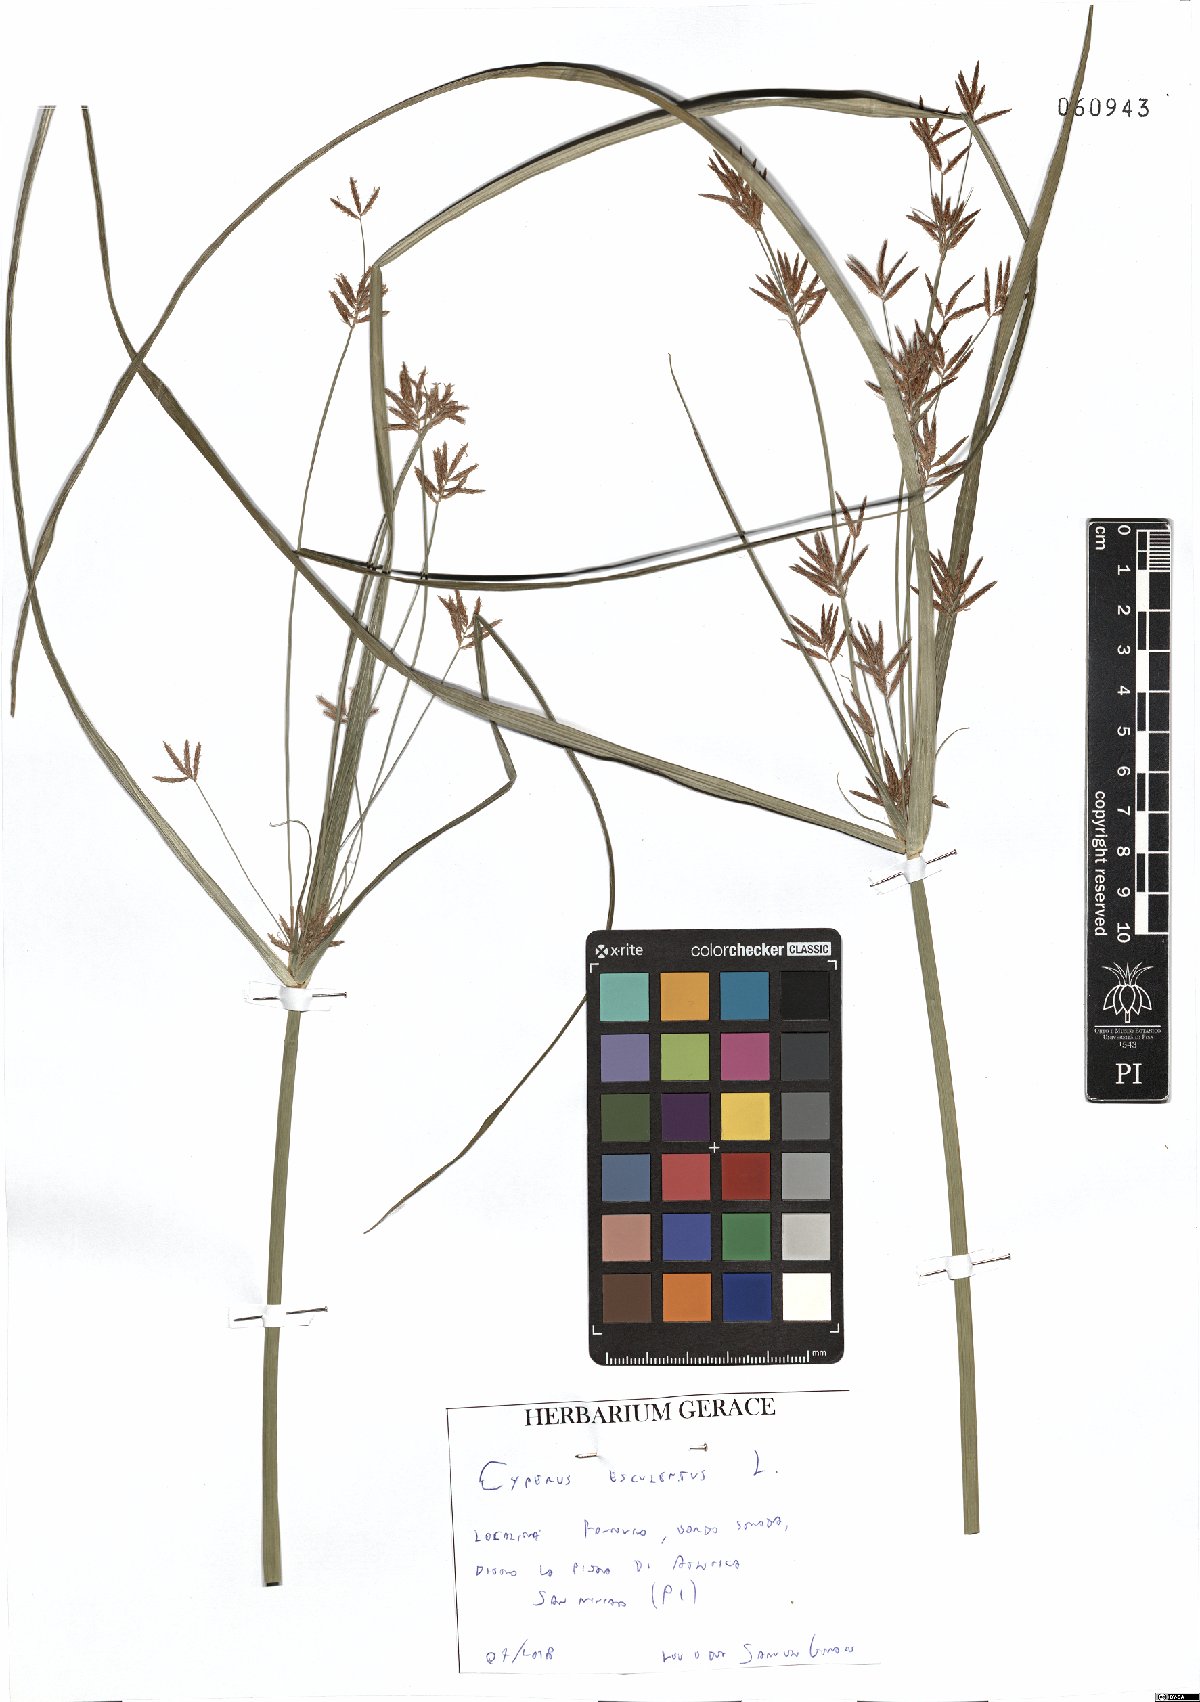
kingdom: Plantae
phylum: Tracheophyta
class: Liliopsida
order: Poales
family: Cyperaceae
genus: Cyperus
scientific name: Cyperus esculentus
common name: Yellow nutsedge
